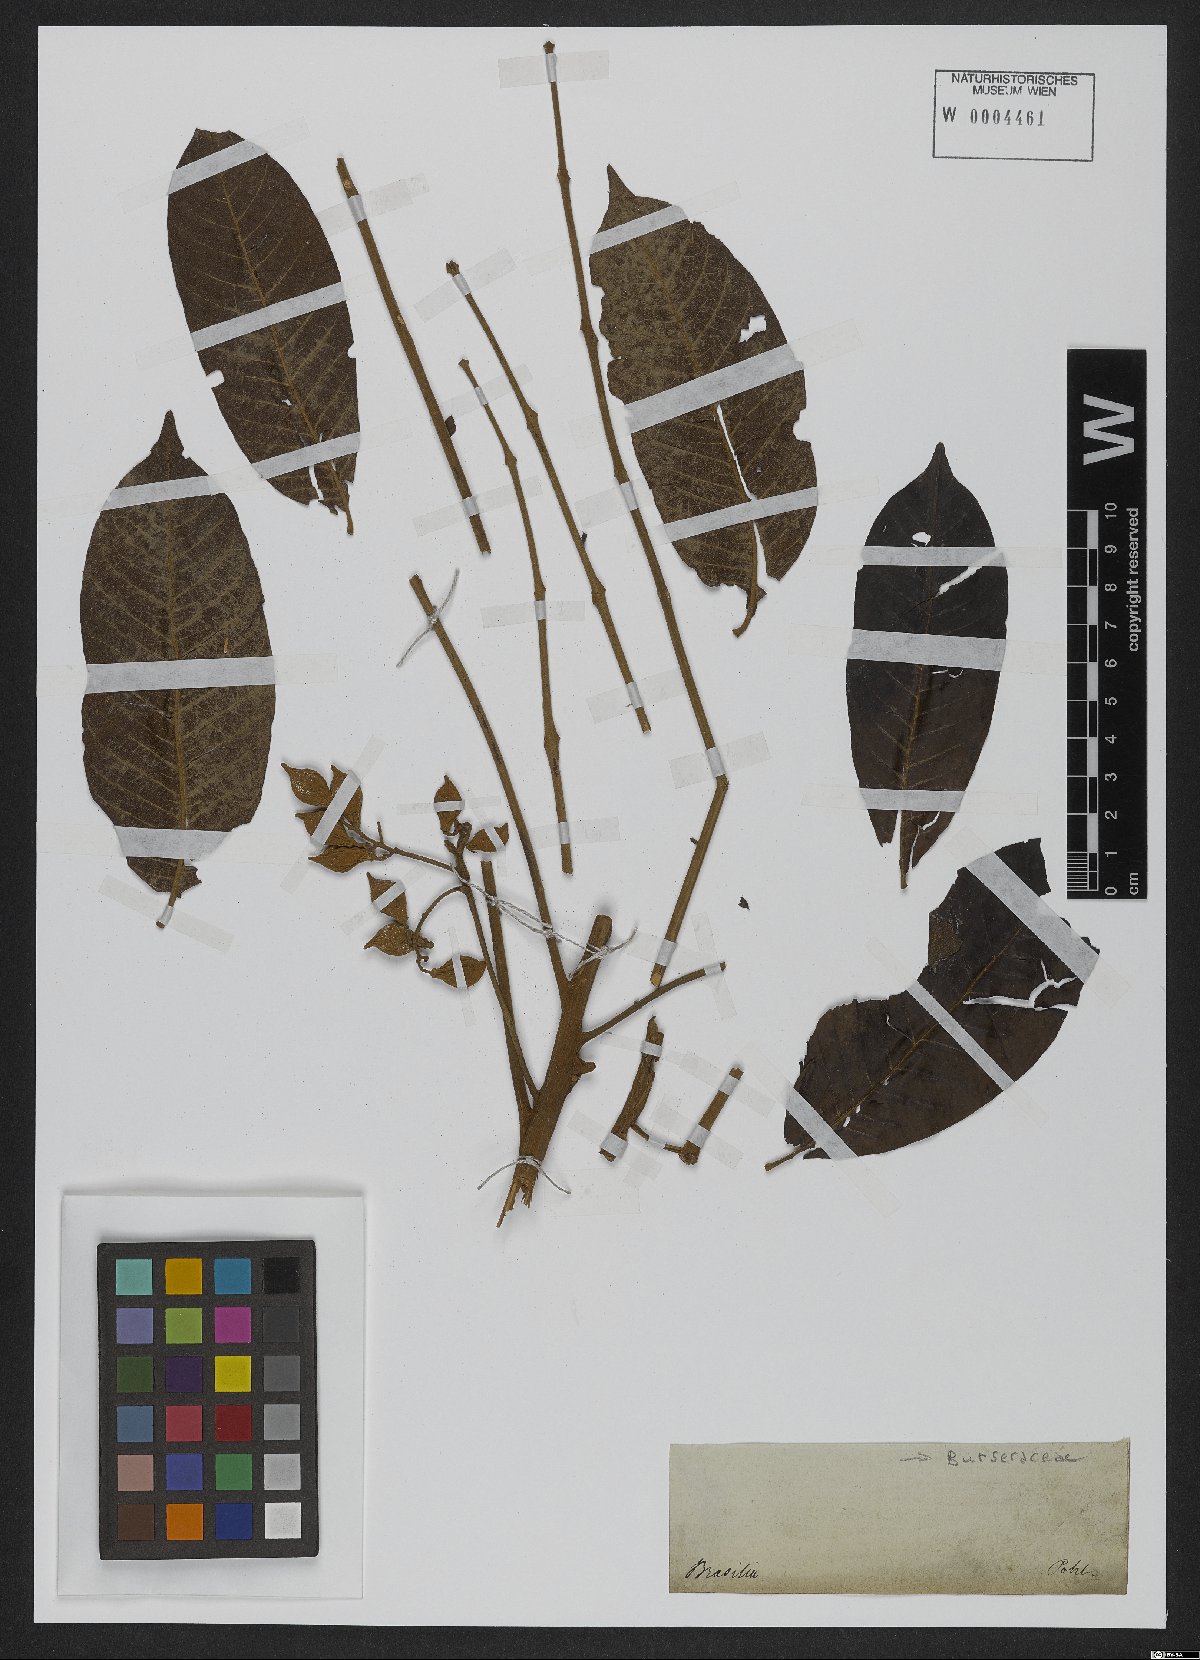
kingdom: Plantae
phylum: Tracheophyta
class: Magnoliopsida
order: Sapindales
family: Meliaceae
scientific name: Meliaceae
